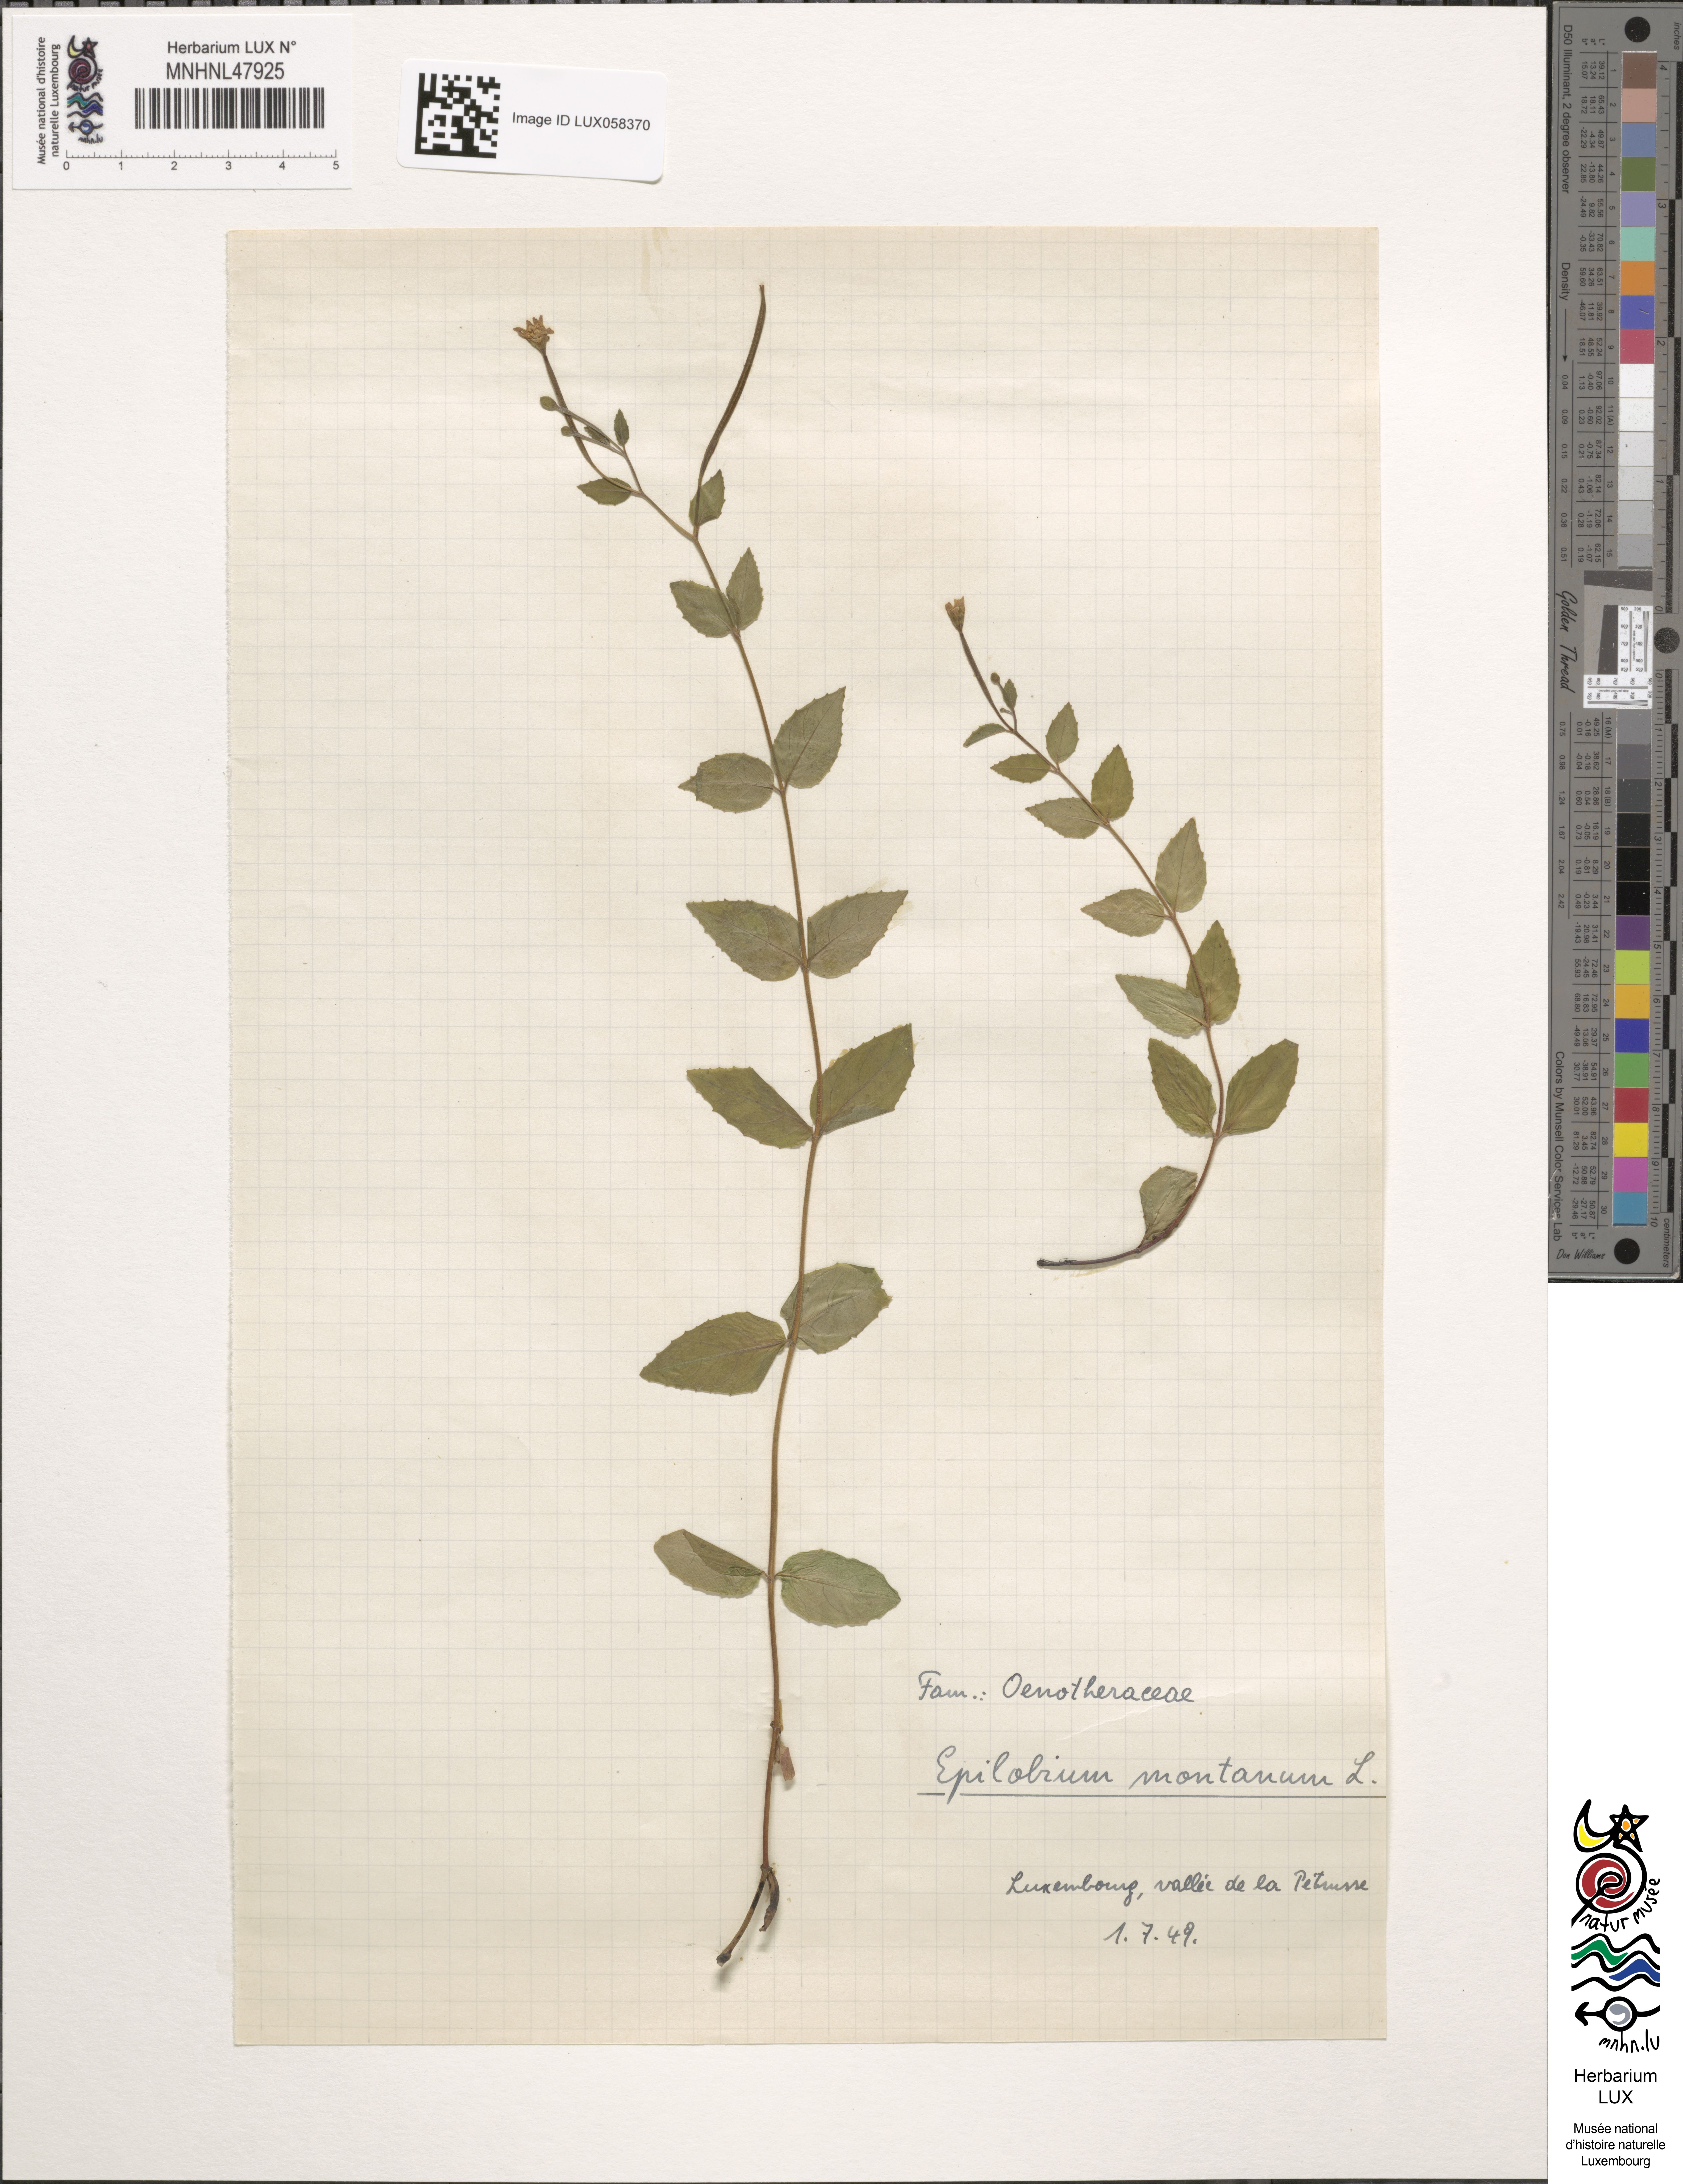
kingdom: Plantae
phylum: Tracheophyta
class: Magnoliopsida
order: Myrtales
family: Onagraceae
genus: Epilobium
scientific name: Epilobium montanum
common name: Broad-leaved willowherb
